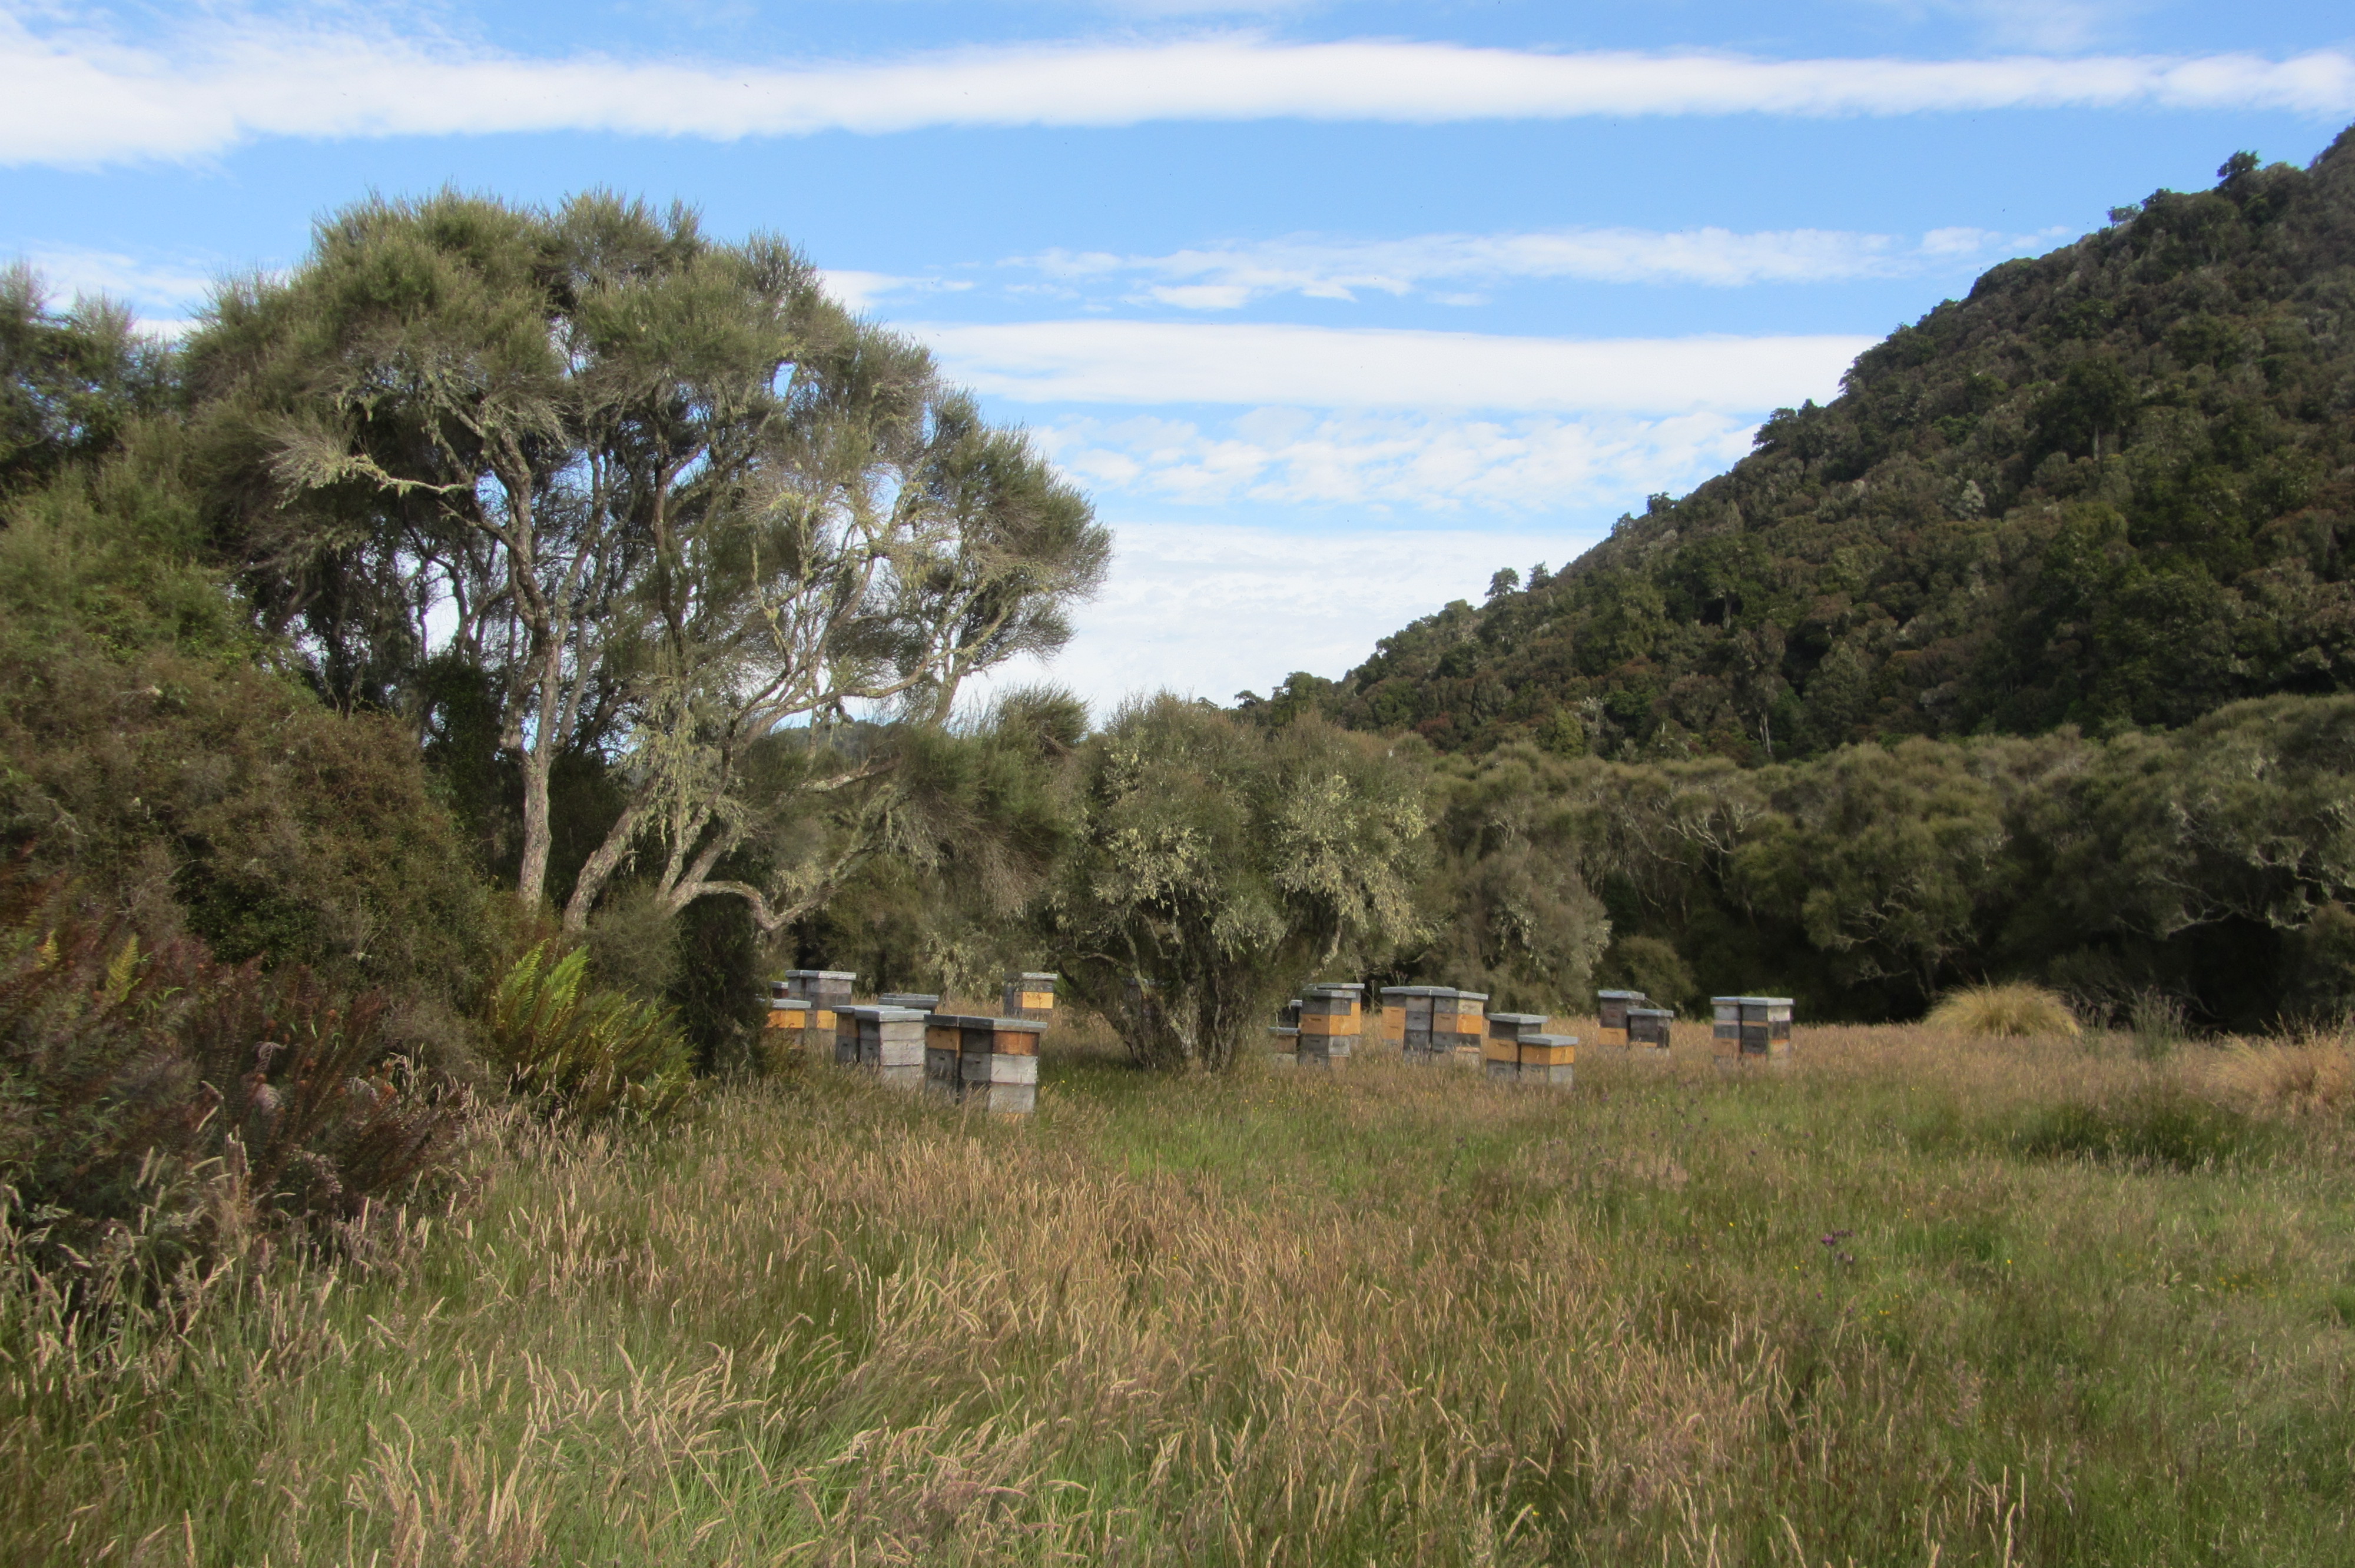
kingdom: Plantae
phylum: Tracheophyta
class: Magnoliopsida
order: Asterales
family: Asteraceae
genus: Olearia
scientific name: Olearia laxiflora
